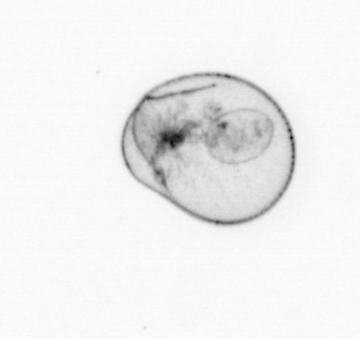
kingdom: Chromista
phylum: Myzozoa
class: Dinophyceae
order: Noctilucales
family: Noctilucaceae
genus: Noctiluca
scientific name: Noctiluca scintillans
